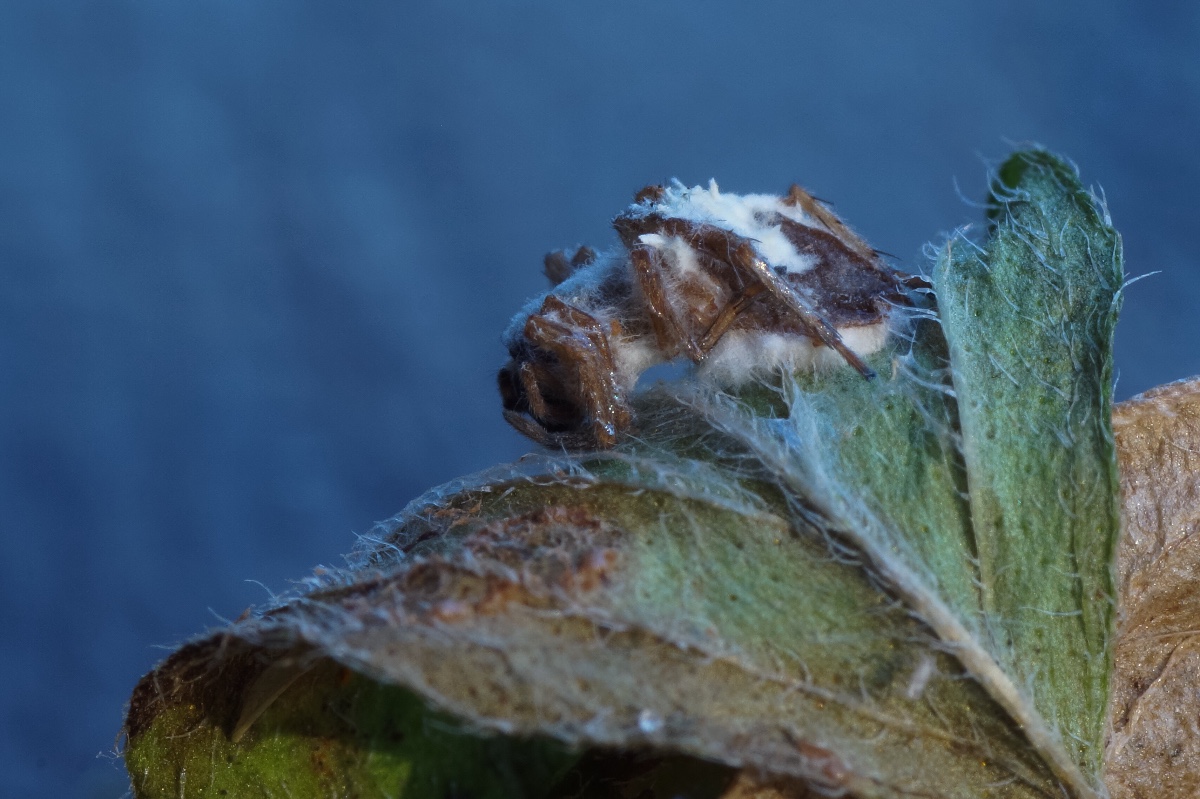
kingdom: Fungi
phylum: Ascomycota
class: Sordariomycetes
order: Hypocreales
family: Cordycipitaceae
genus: Gibellula
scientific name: Gibellula
